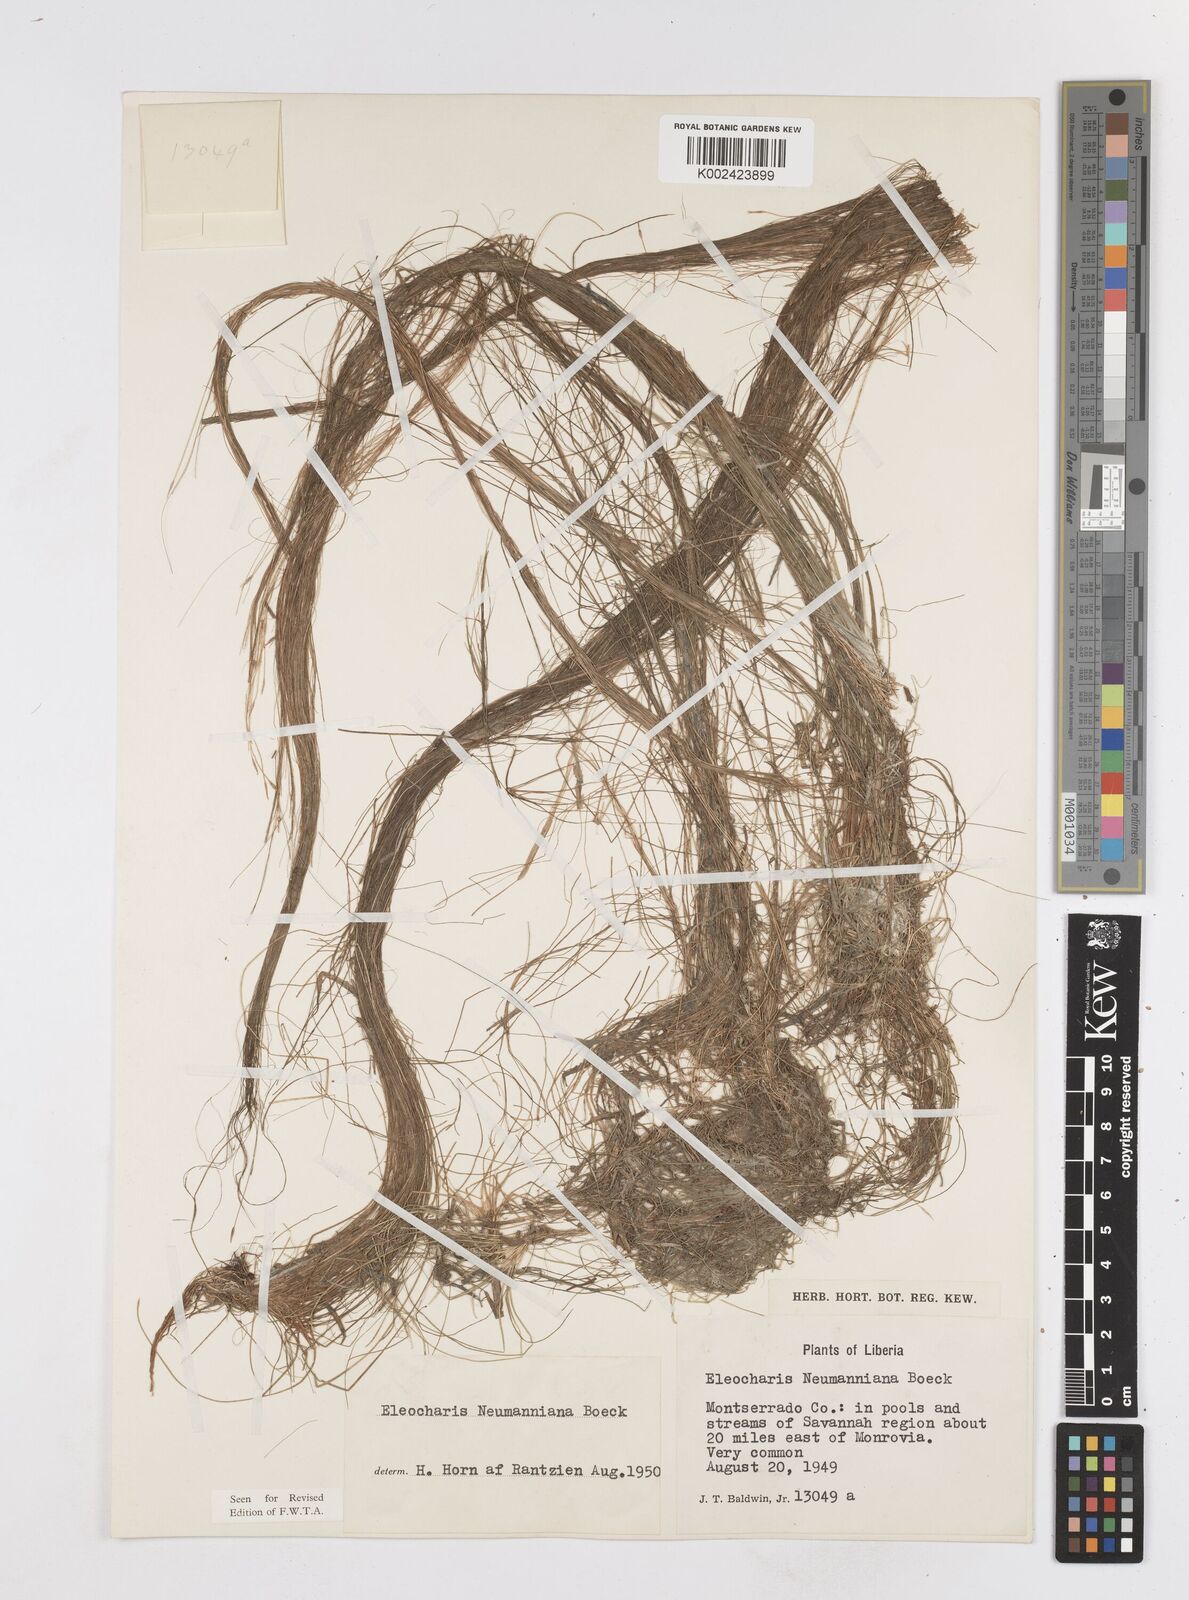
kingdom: Plantae
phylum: Tracheophyta
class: Liliopsida
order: Poales
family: Cyperaceae
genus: Eleocharis
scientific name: Eleocharis naumanniana
